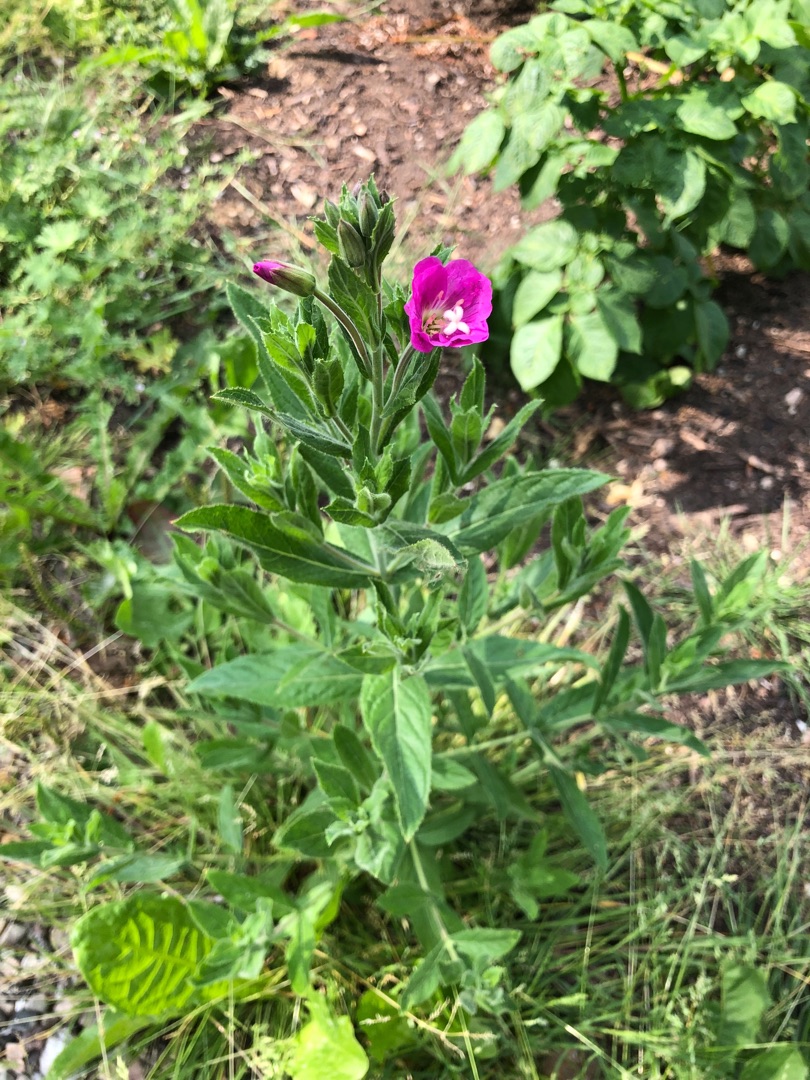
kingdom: Plantae
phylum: Tracheophyta
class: Magnoliopsida
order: Myrtales
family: Onagraceae
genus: Epilobium
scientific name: Epilobium hirsutum
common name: Lådden dueurt
